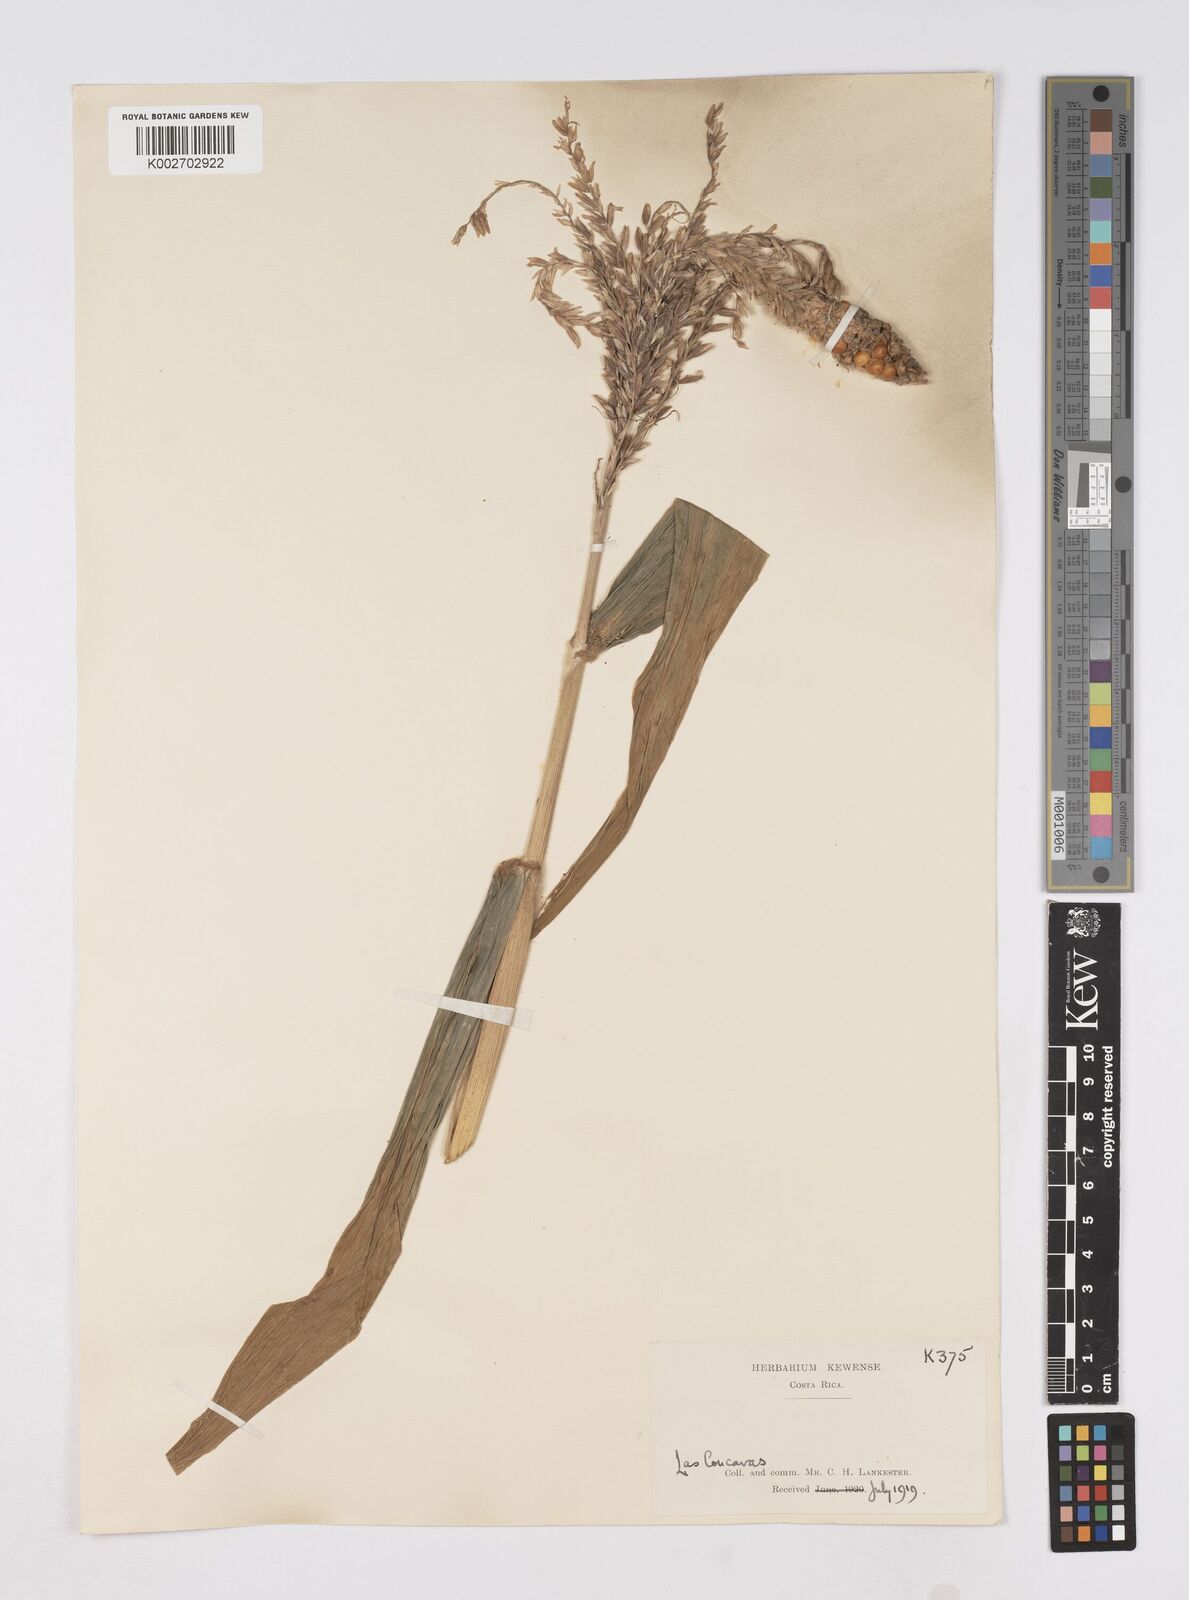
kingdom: Plantae
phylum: Tracheophyta
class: Liliopsida
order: Poales
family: Poaceae
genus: Zea
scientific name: Zea mays
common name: Maize
